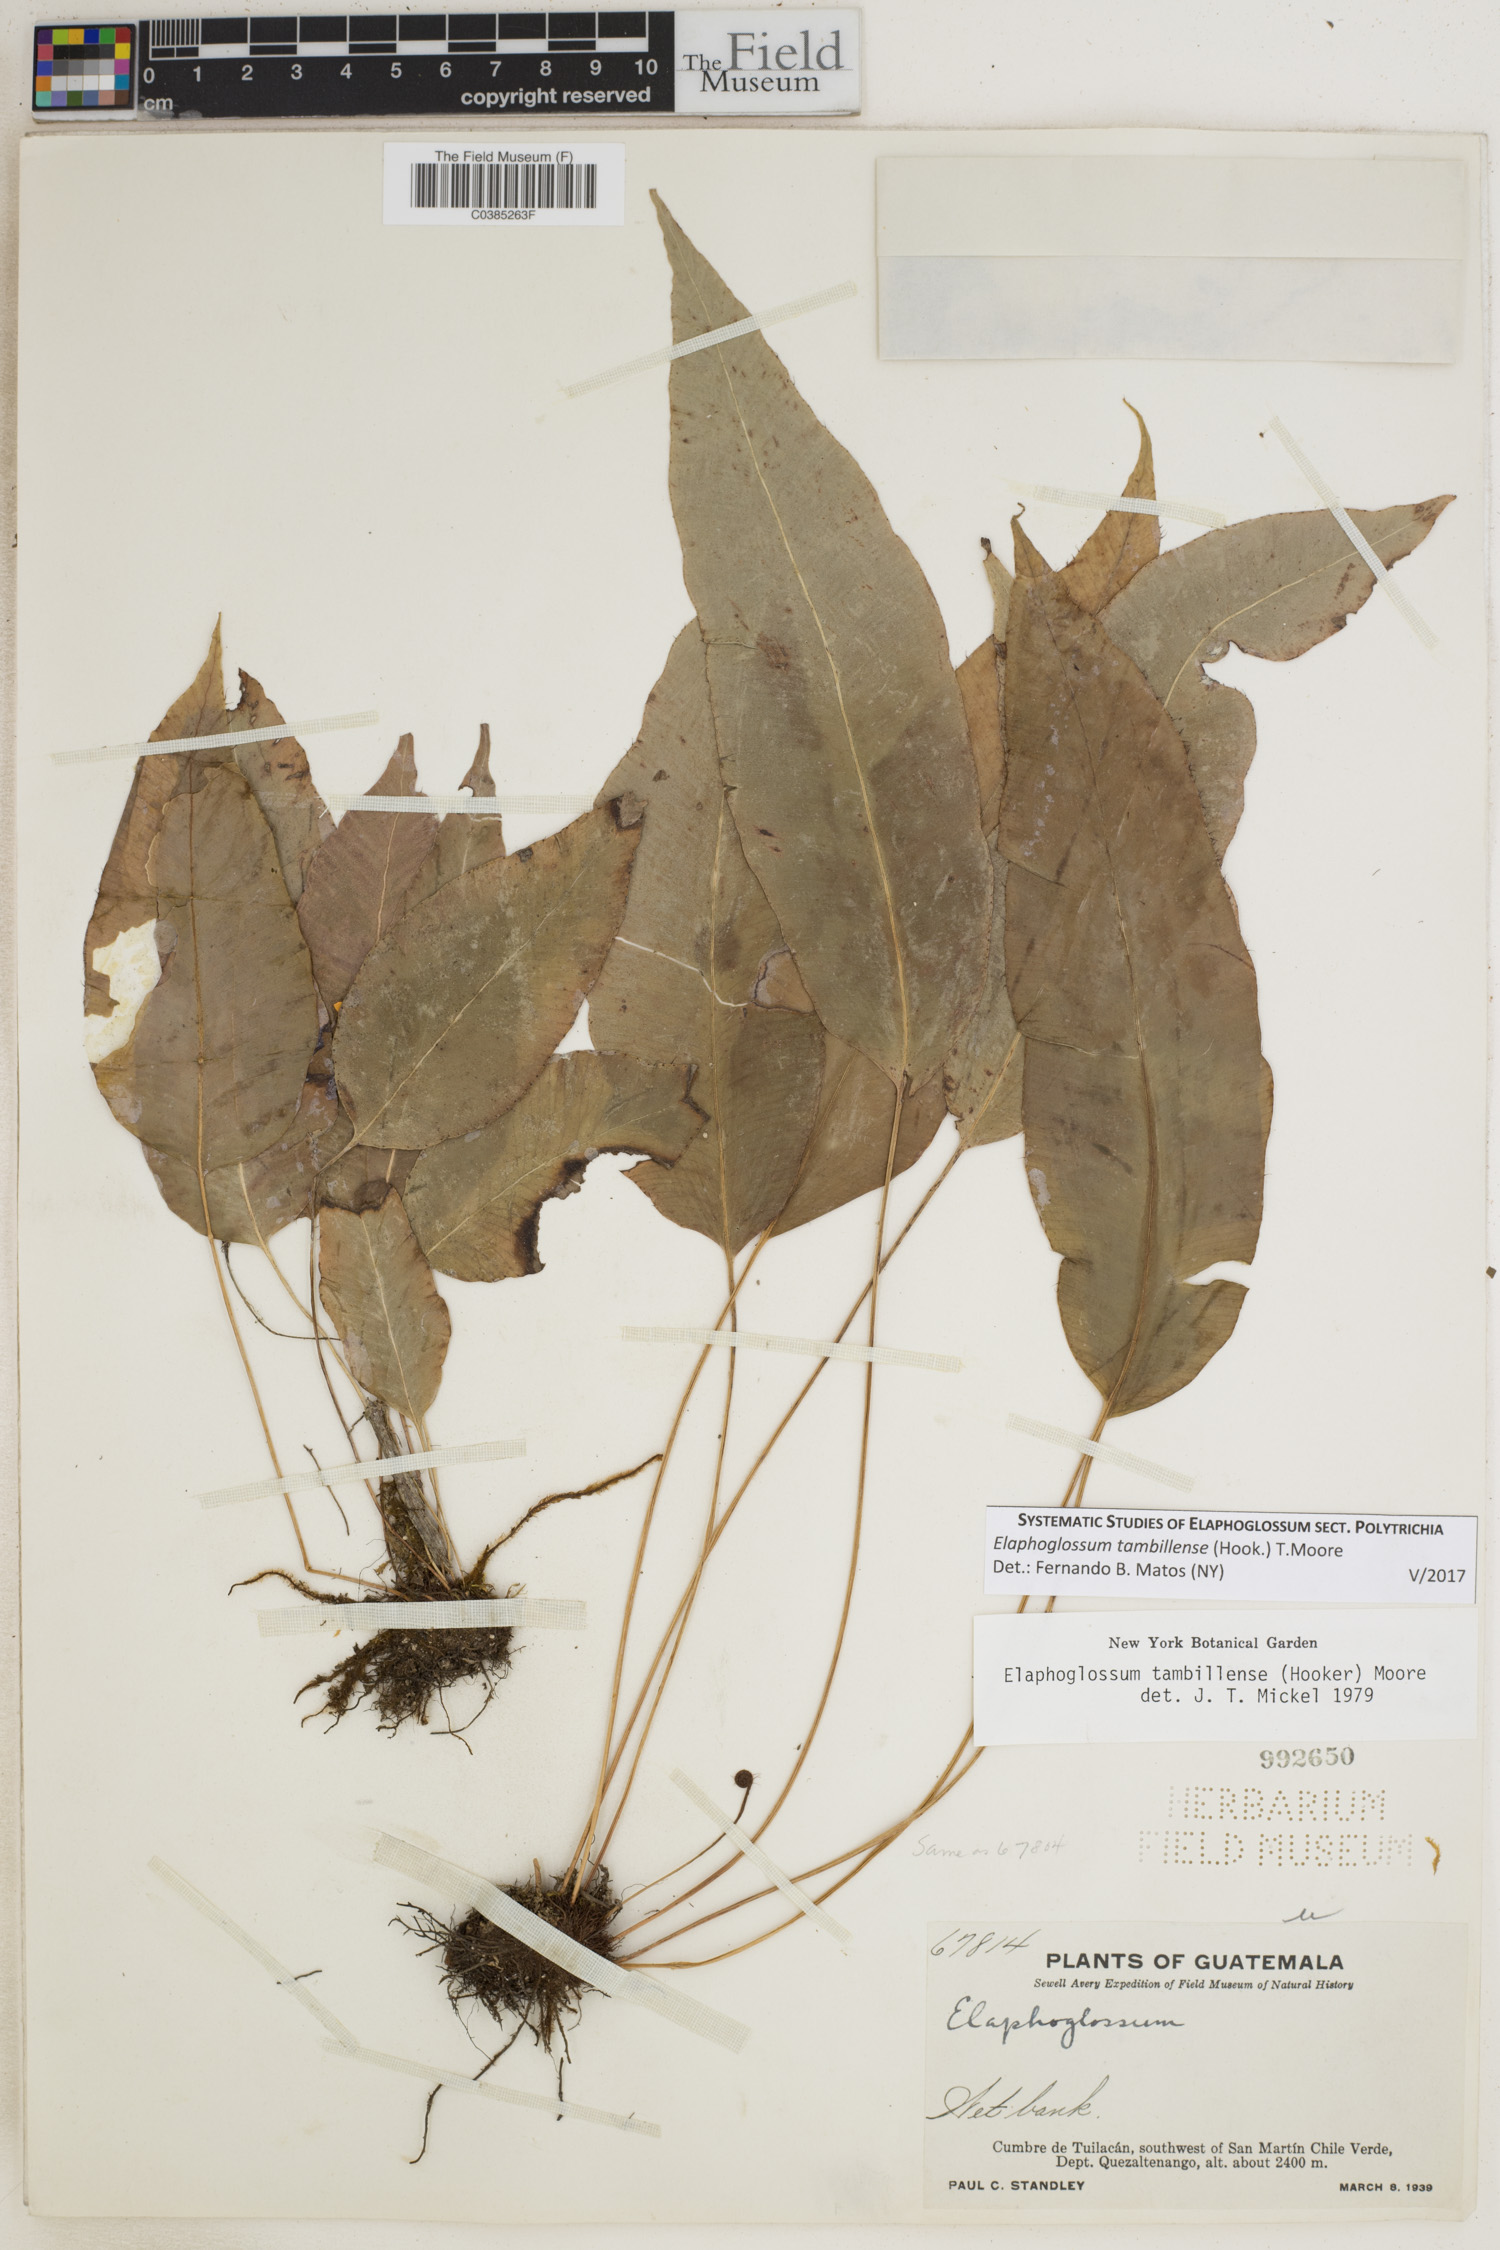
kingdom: Plantae
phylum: Tracheophyta
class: Polypodiopsida
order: Polypodiales
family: Dryopteridaceae
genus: Elaphoglossum
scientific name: Elaphoglossum tambillense
